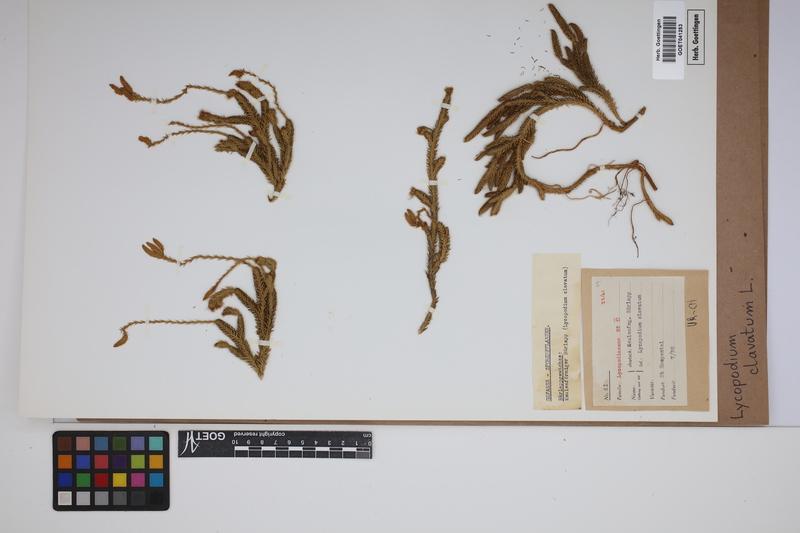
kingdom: Plantae
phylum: Tracheophyta
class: Lycopodiopsida
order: Lycopodiales
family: Lycopodiaceae
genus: Lycopodium
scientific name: Lycopodium clavatum
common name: Stag's-horn clubmoss
